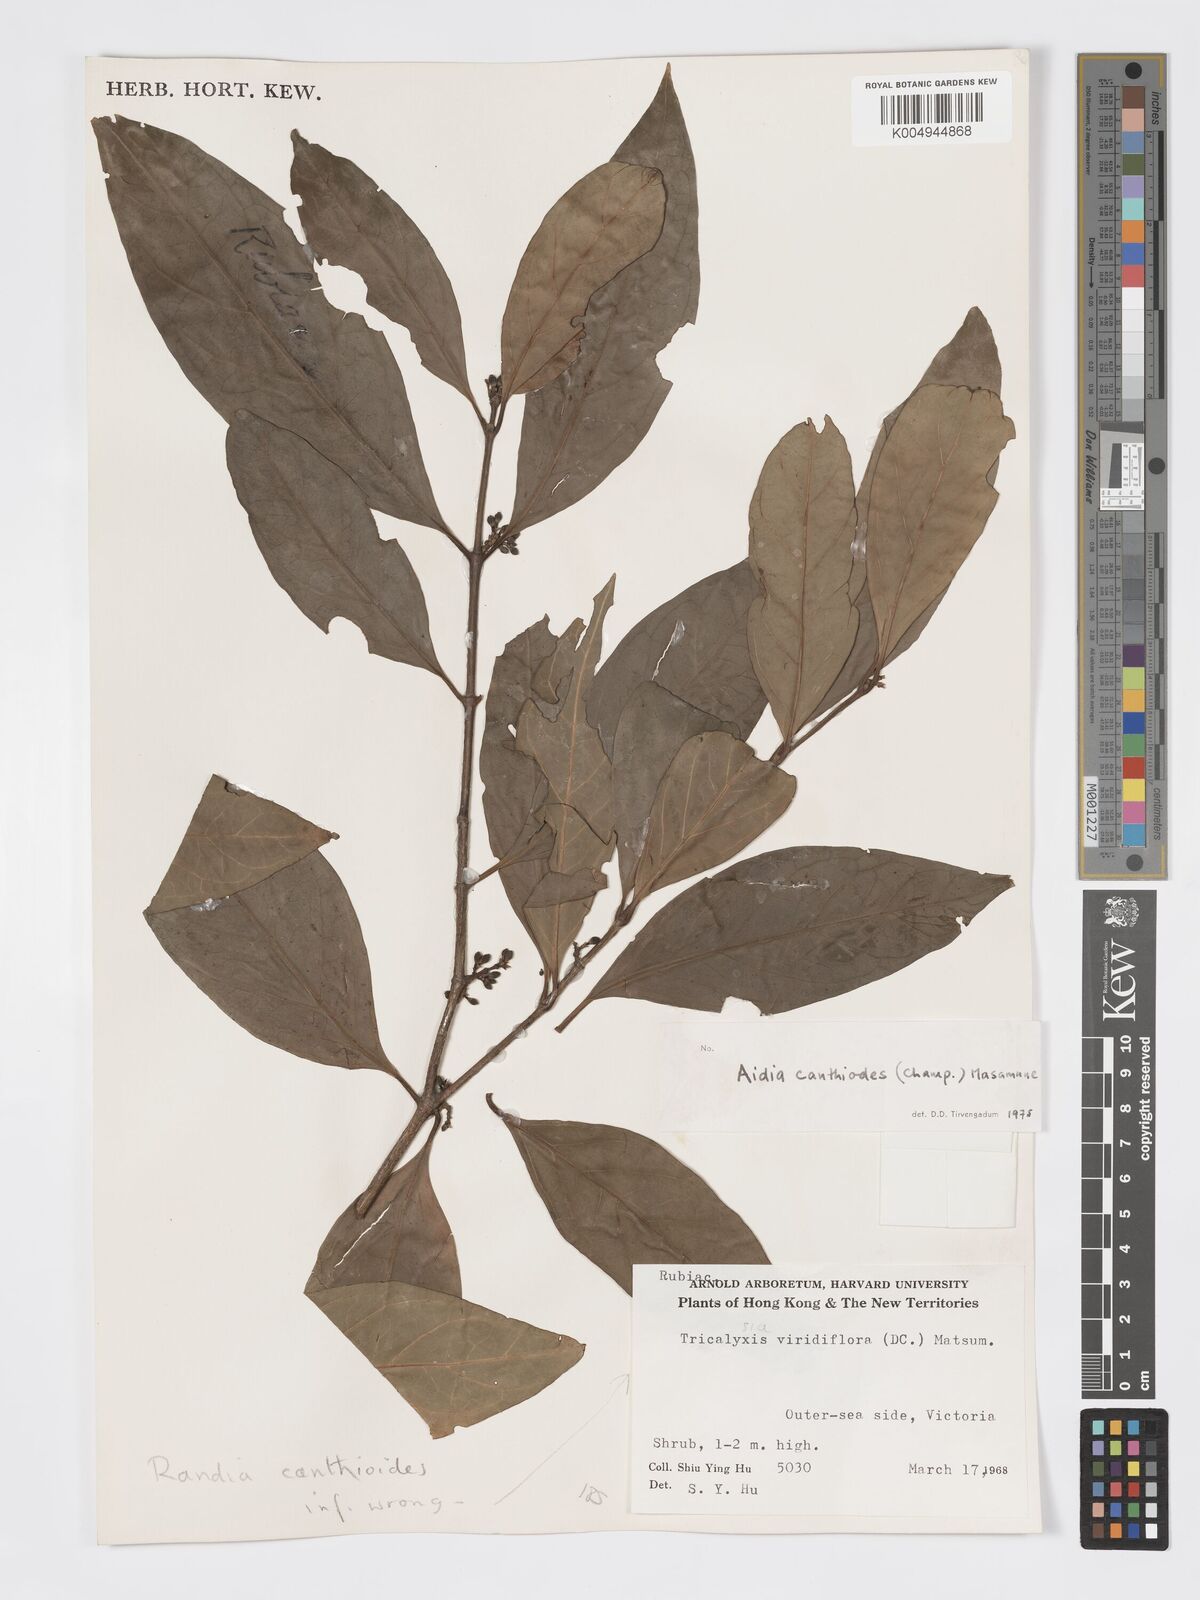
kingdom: Plantae
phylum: Tracheophyta
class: Magnoliopsida
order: Gentianales
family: Rubiaceae
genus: Aidia
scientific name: Aidia canthioides
